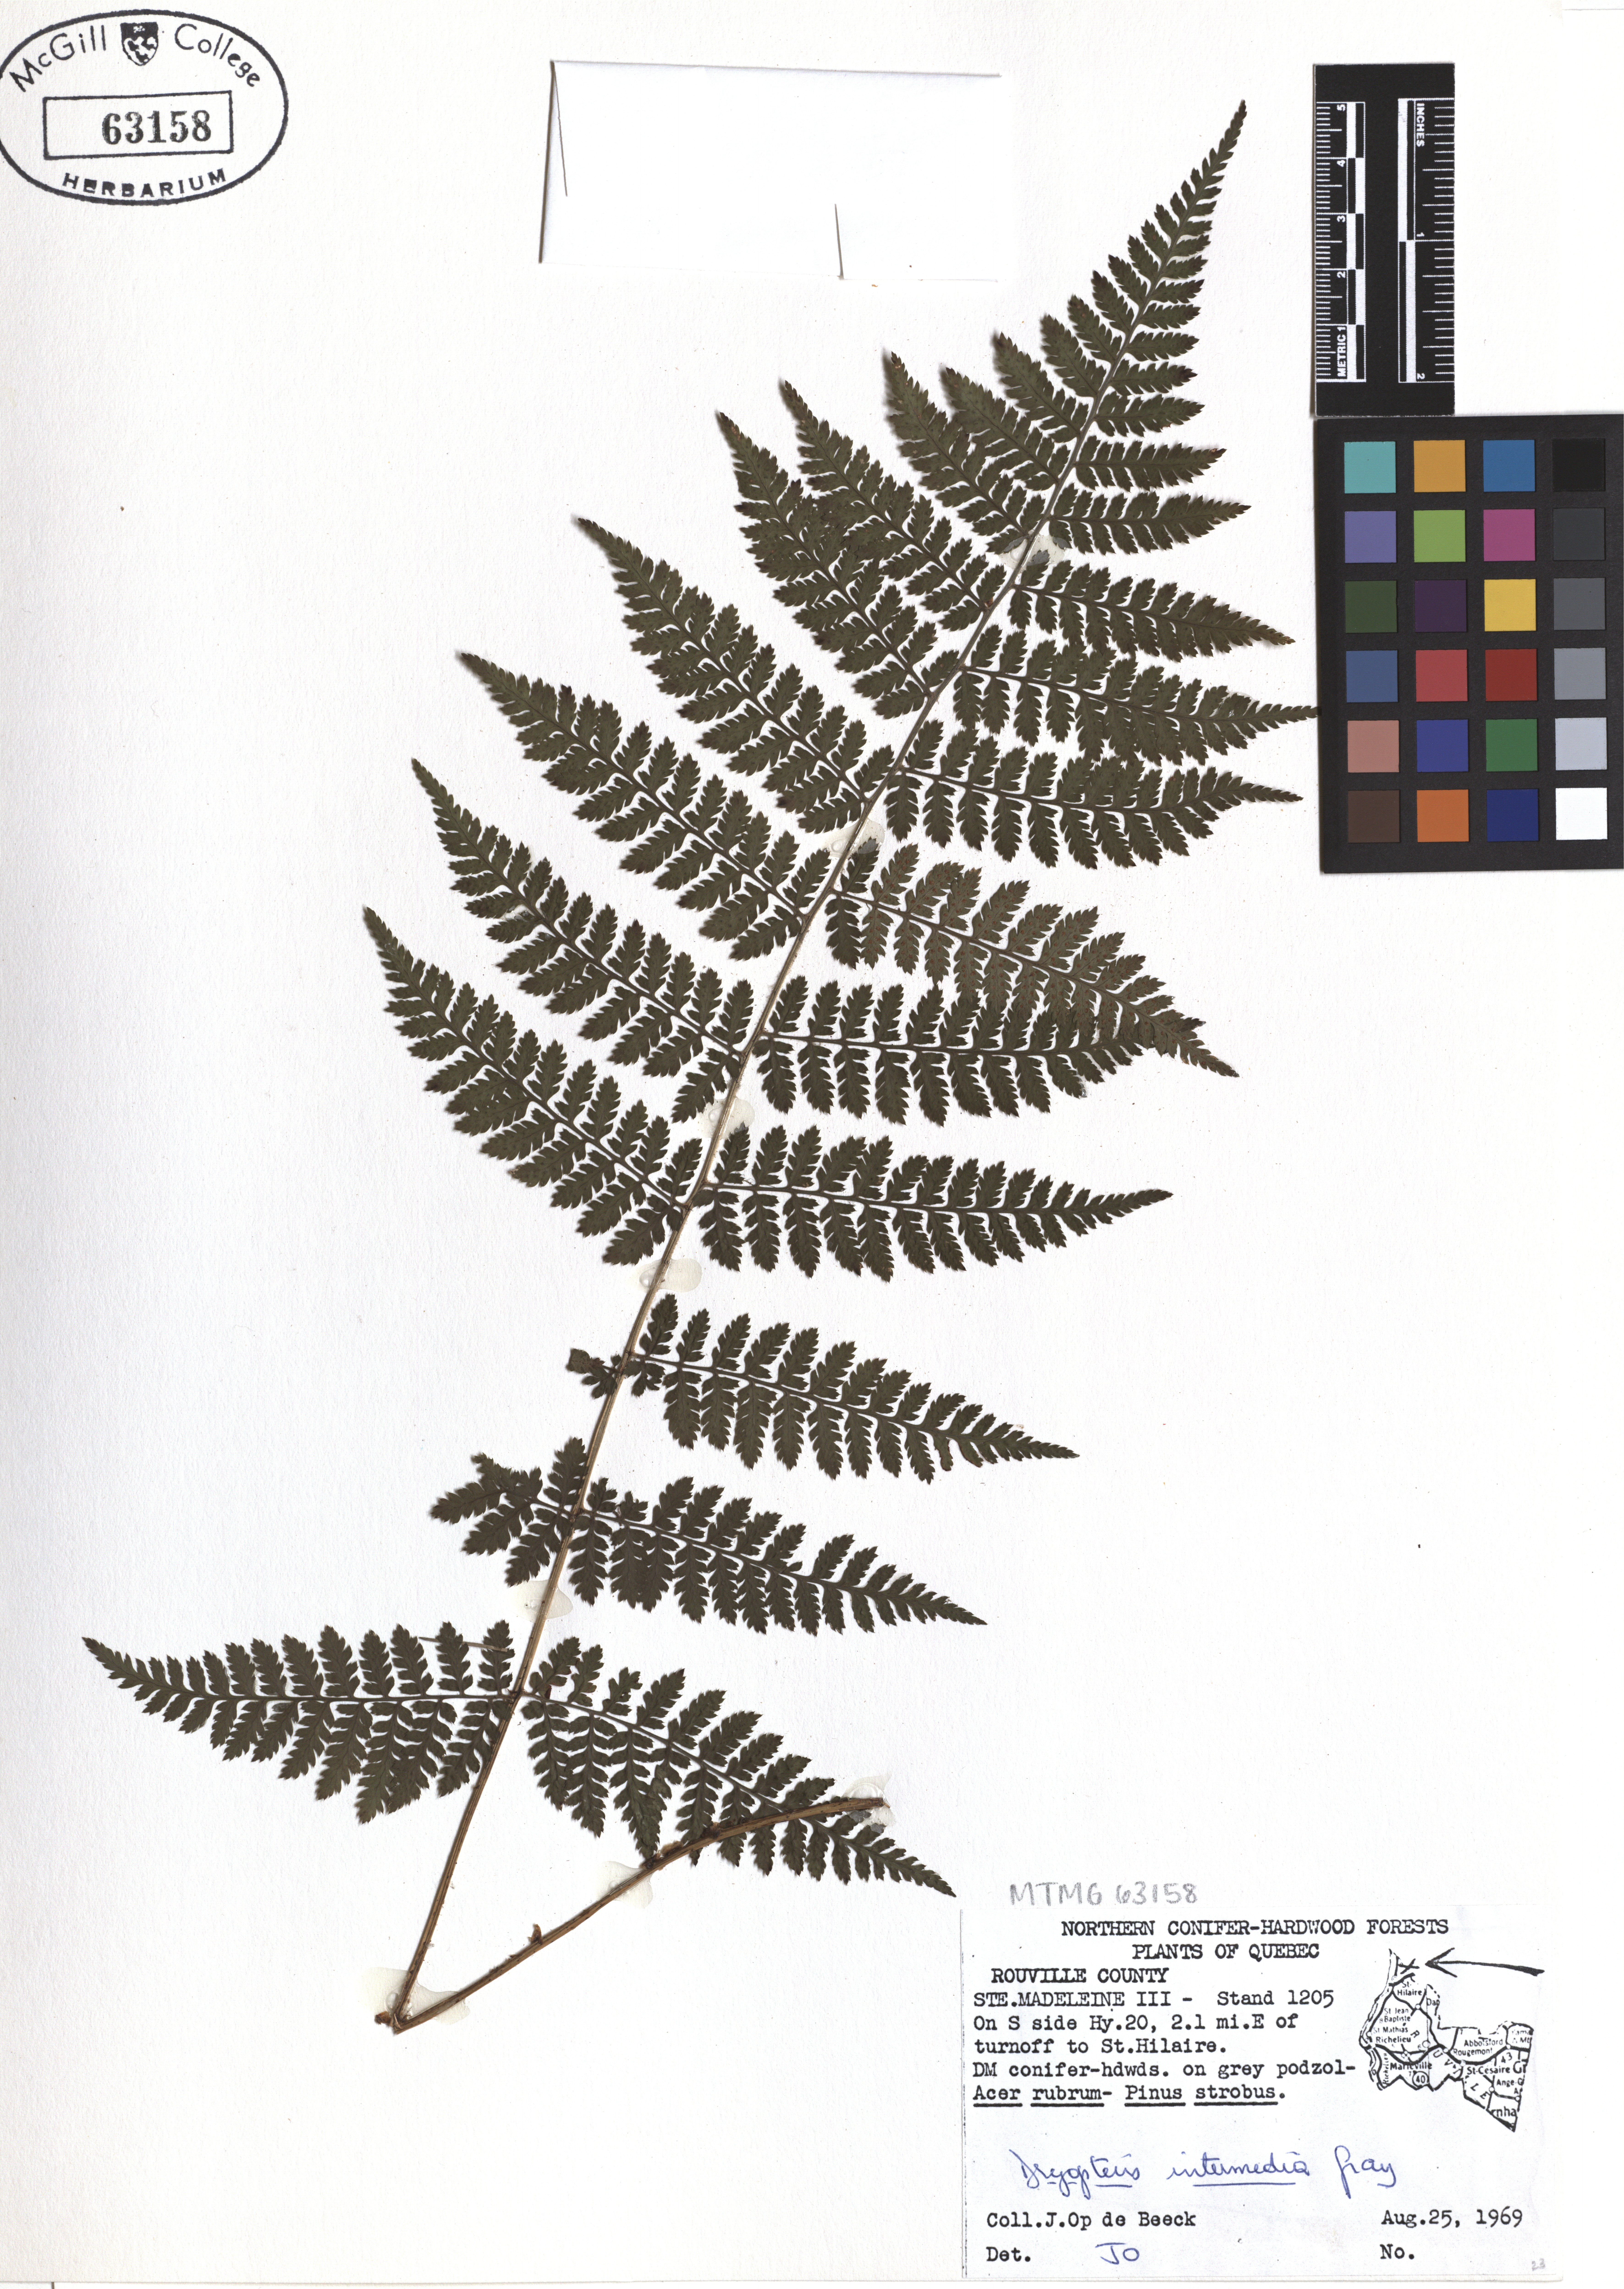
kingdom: Plantae
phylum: Tracheophyta
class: Polypodiopsida
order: Polypodiales
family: Dryopteridaceae
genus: Dryopteris
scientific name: Dryopteris intermedia
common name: Evergreen wood fern
